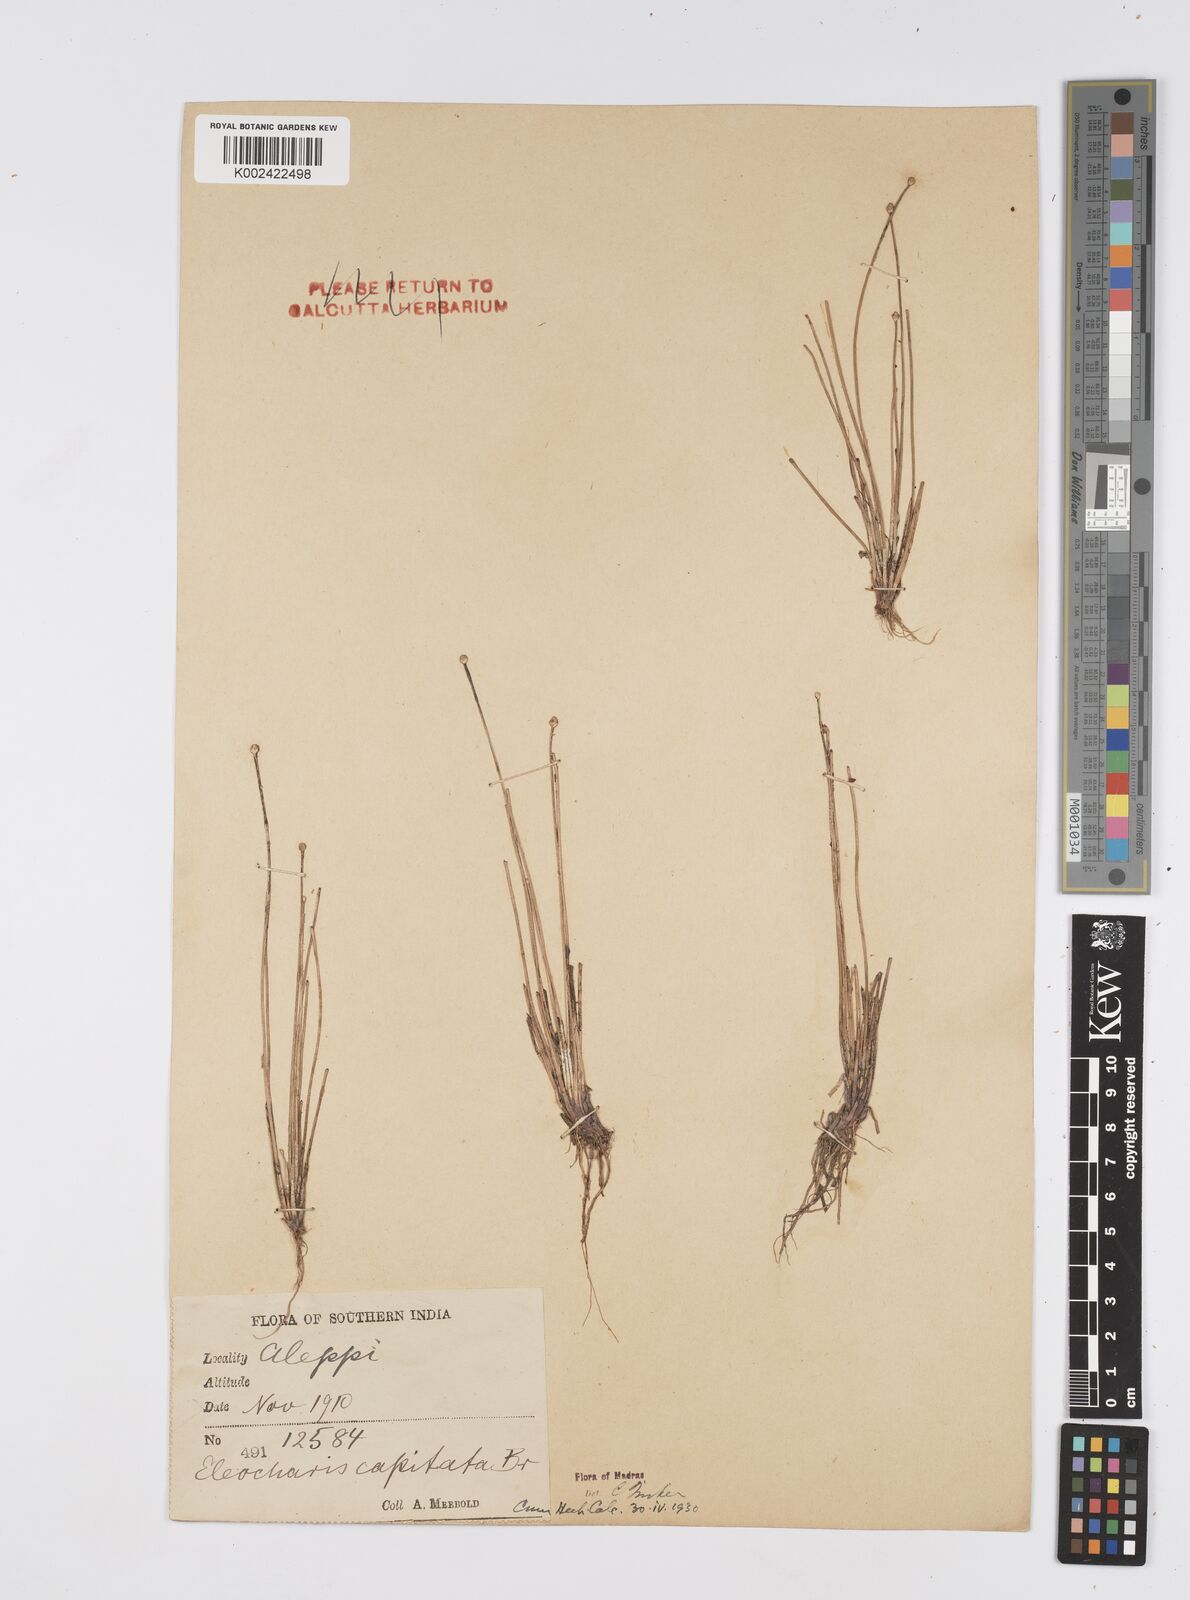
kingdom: Plantae
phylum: Tracheophyta
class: Liliopsida
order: Poales
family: Cyperaceae
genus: Eleocharis
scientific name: Eleocharis geniculata
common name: Canada spikesedge
